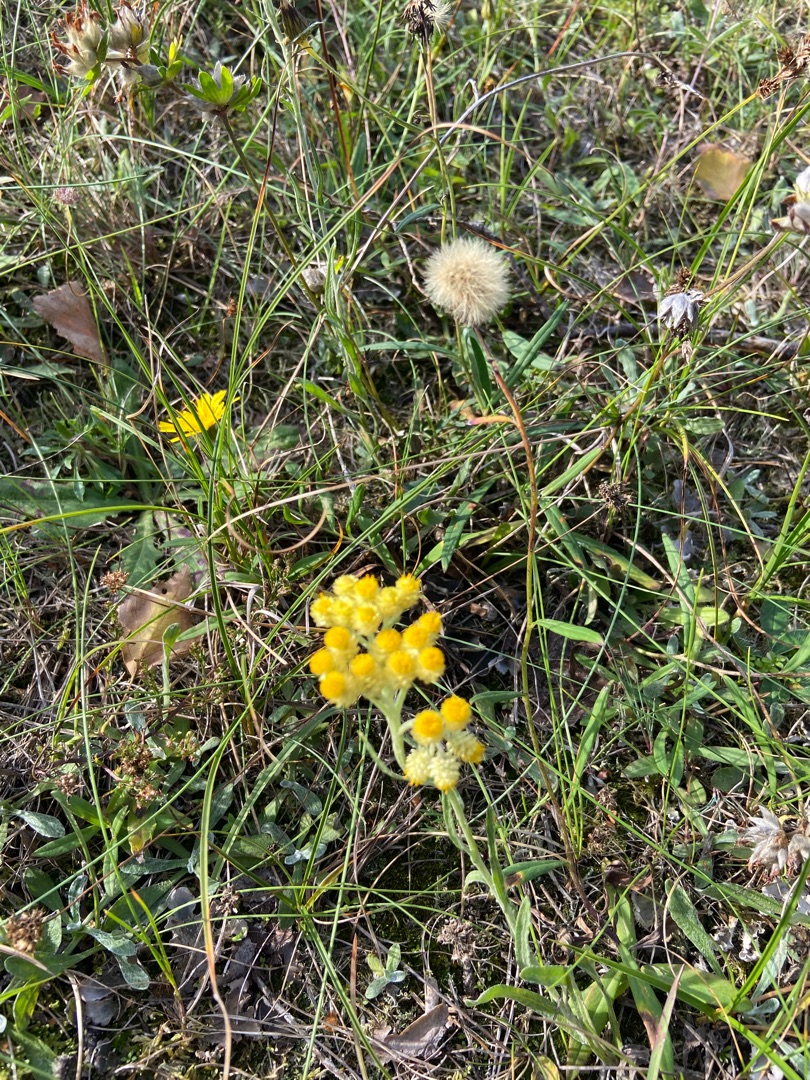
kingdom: Plantae
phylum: Tracheophyta
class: Magnoliopsida
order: Asterales
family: Asteraceae
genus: Helichrysum
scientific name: Helichrysum arenarium
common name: Gul evighedsblomst
